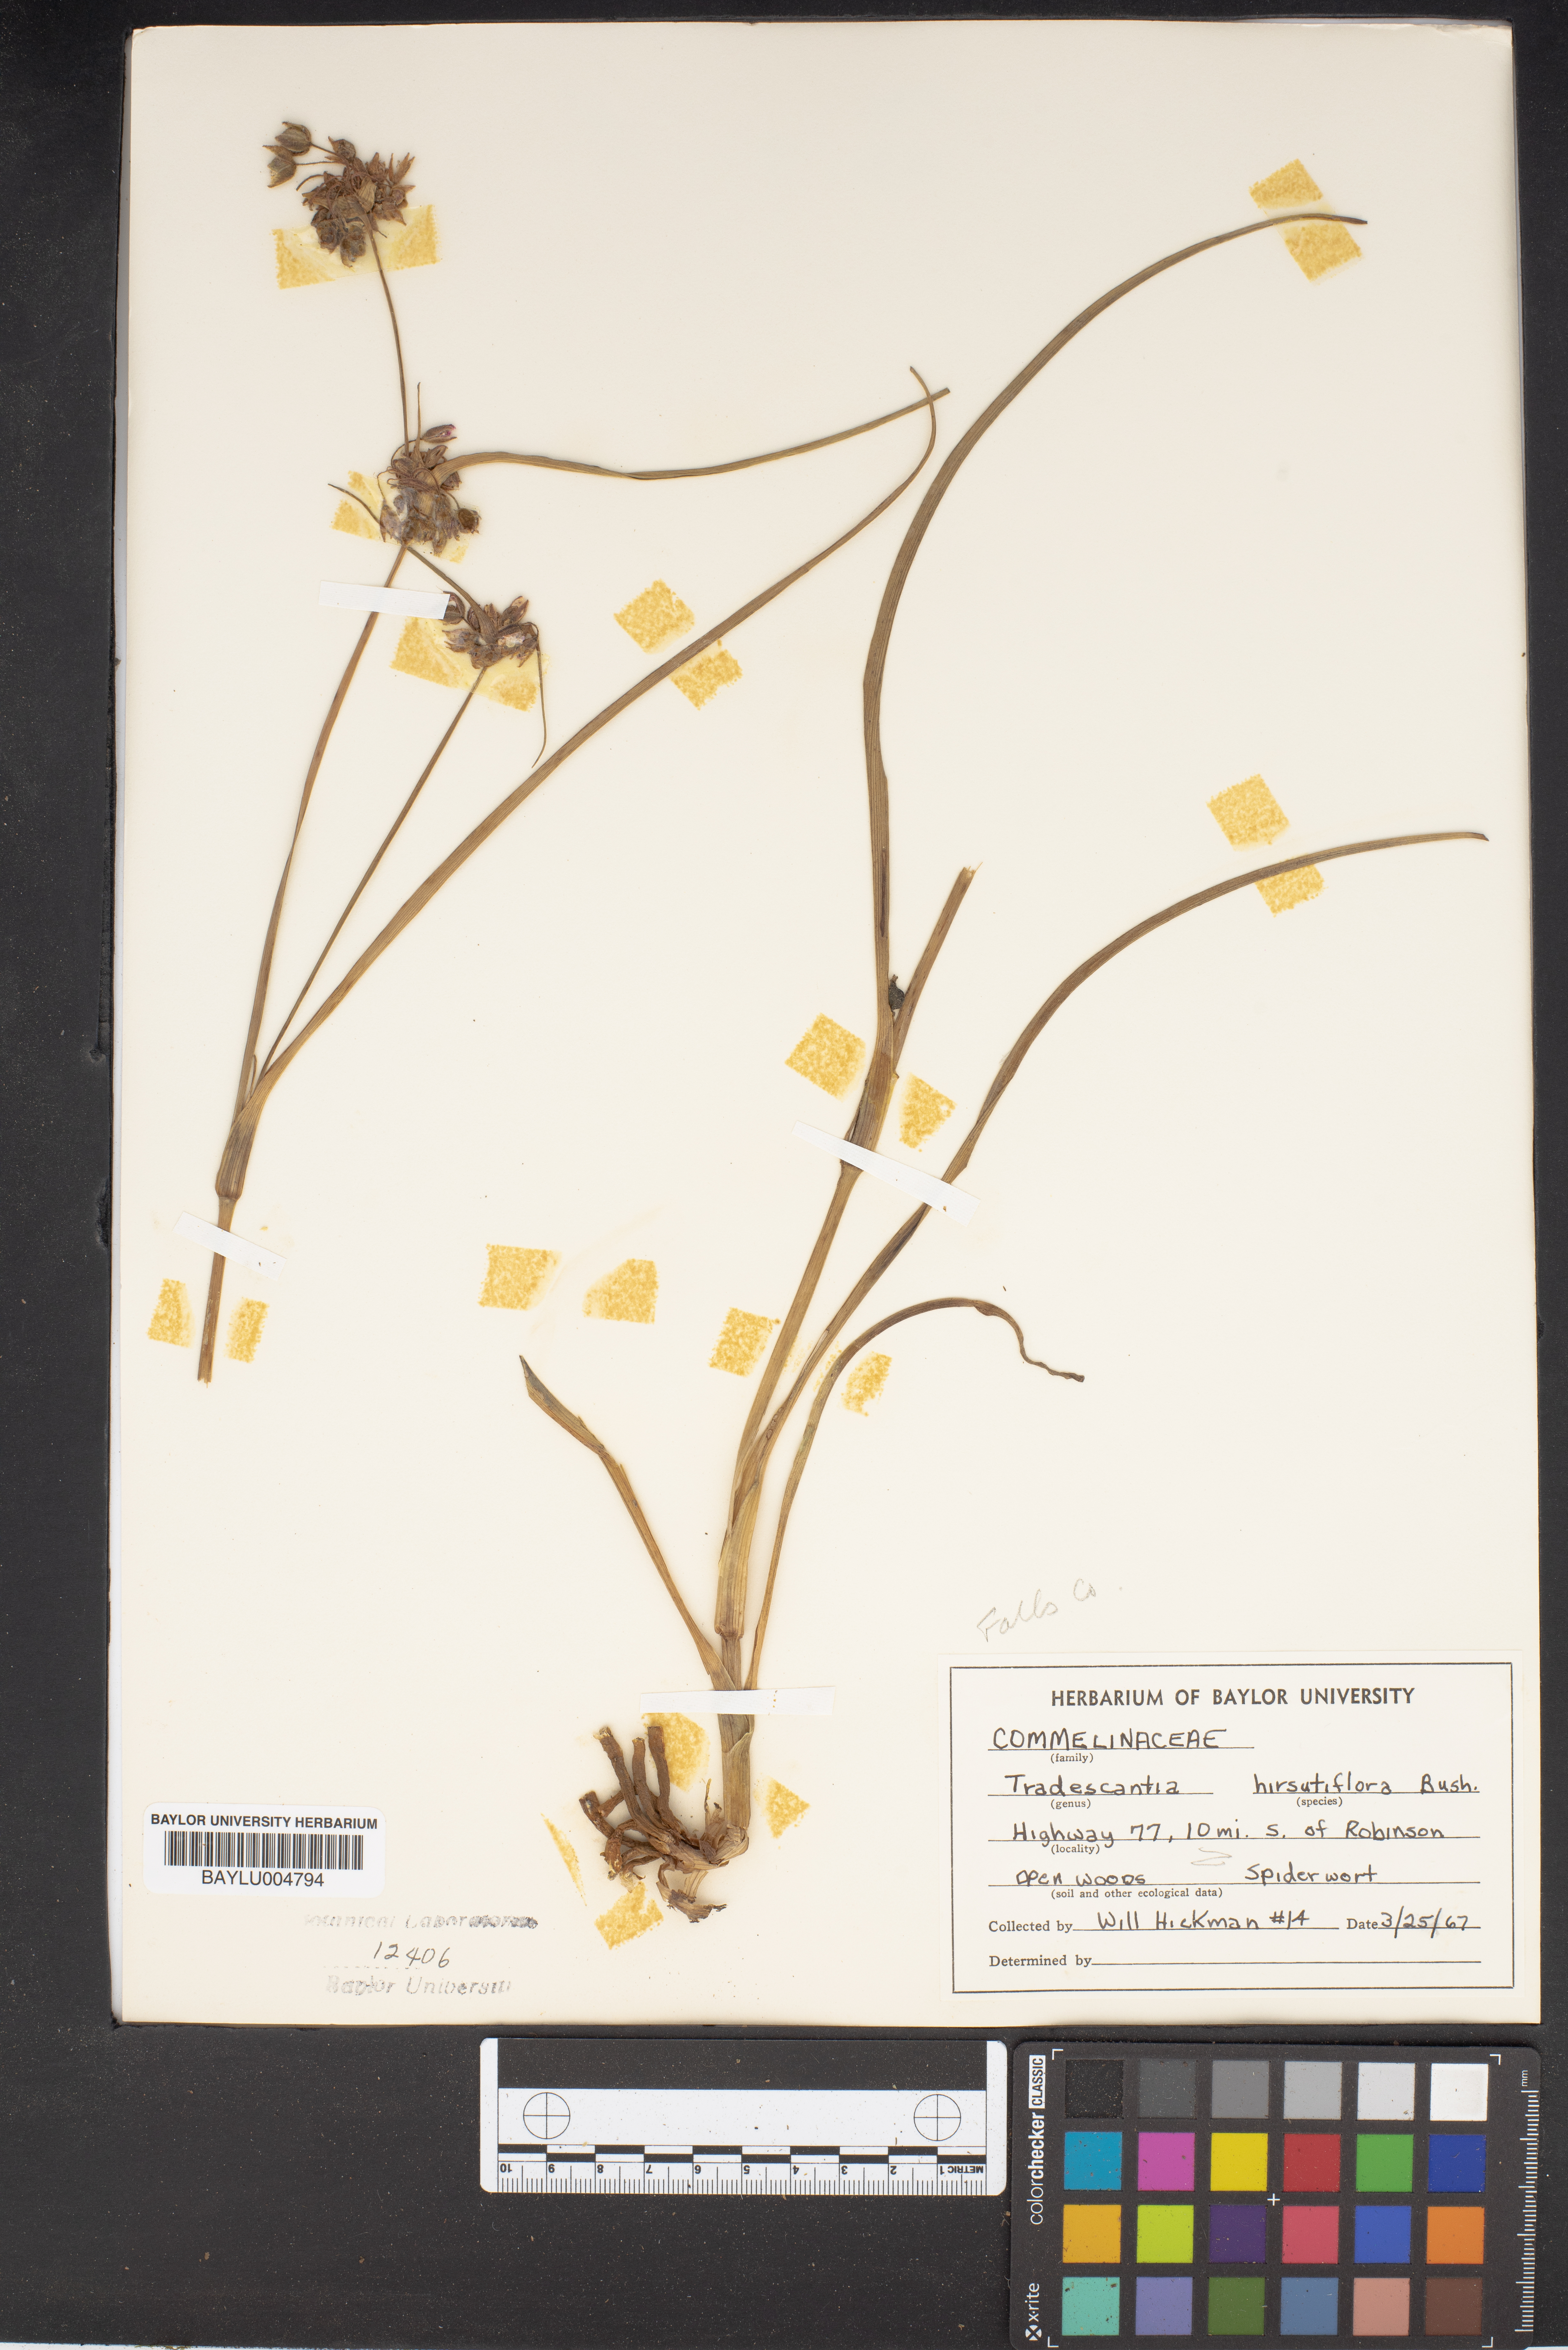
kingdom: Plantae
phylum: Tracheophyta
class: Liliopsida
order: Commelinales
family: Commelinaceae
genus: Tradescantia
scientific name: Tradescantia hirsutiflora
